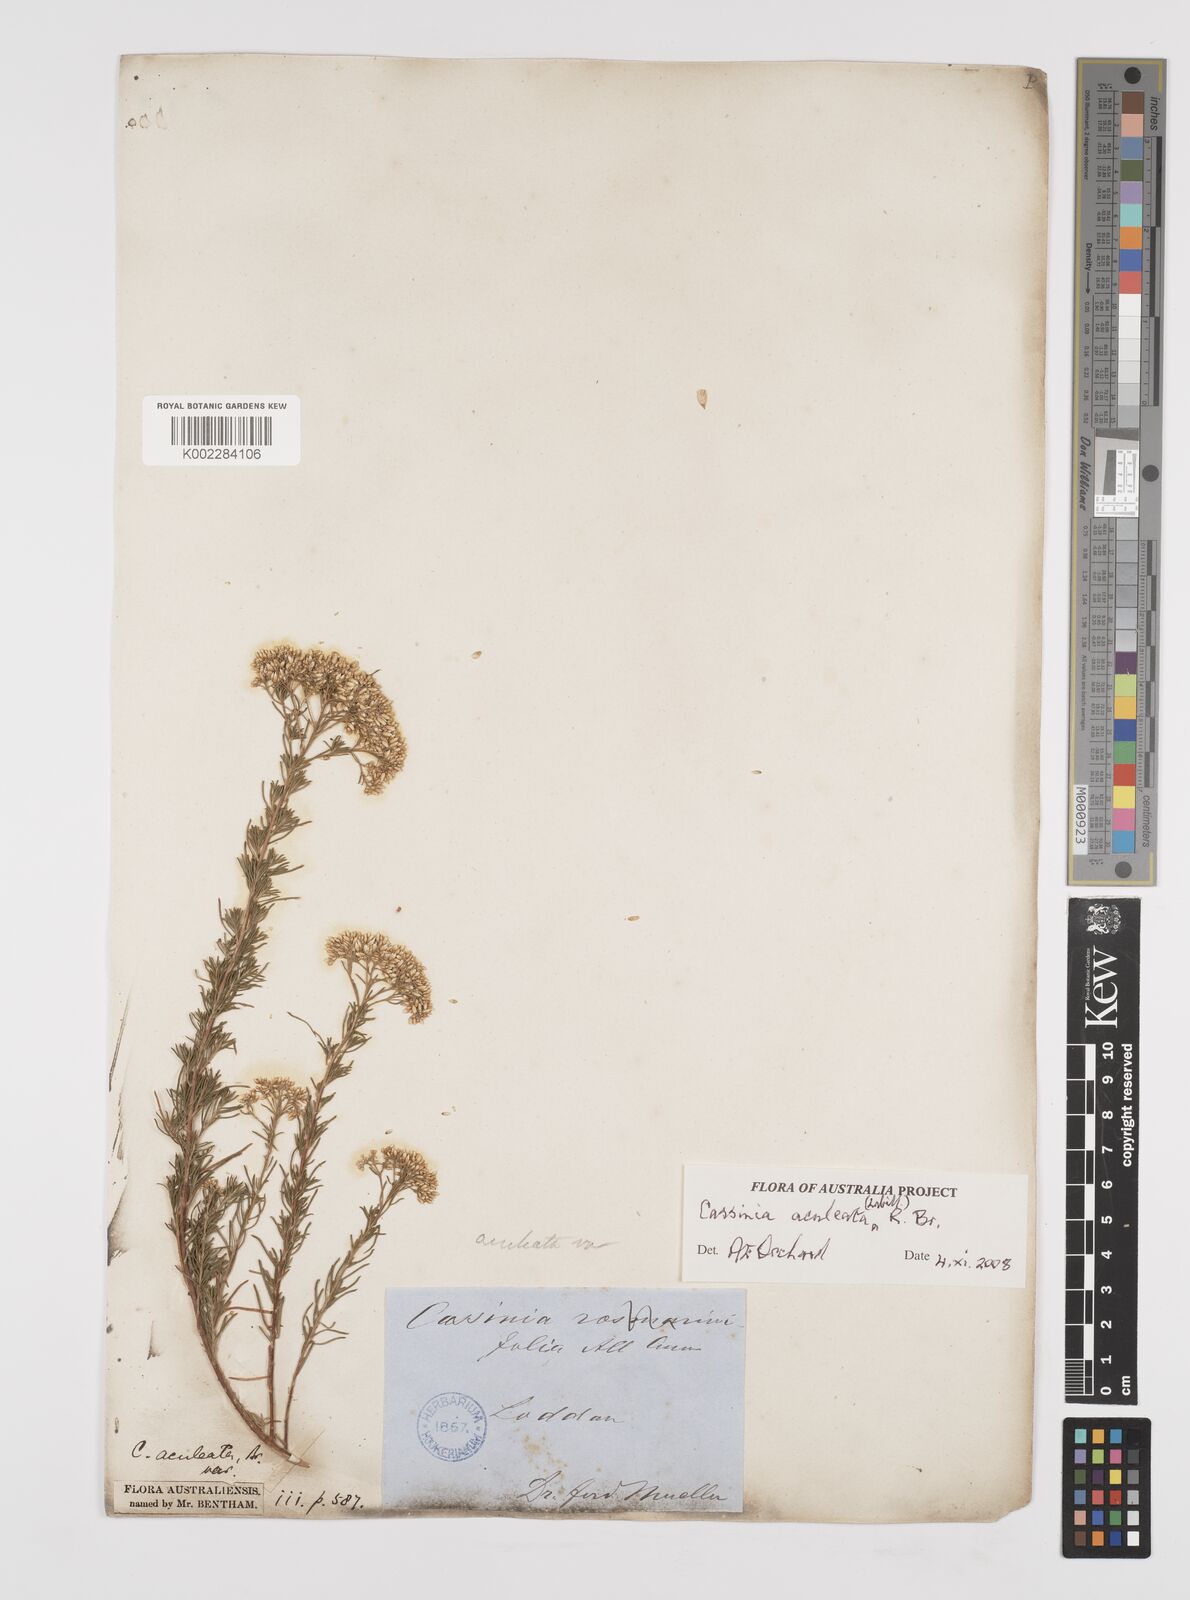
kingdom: Plantae
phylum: Tracheophyta
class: Magnoliopsida
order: Asterales
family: Asteraceae
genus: Cassinia
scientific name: Cassinia aculeata
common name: Australian tauhinu
